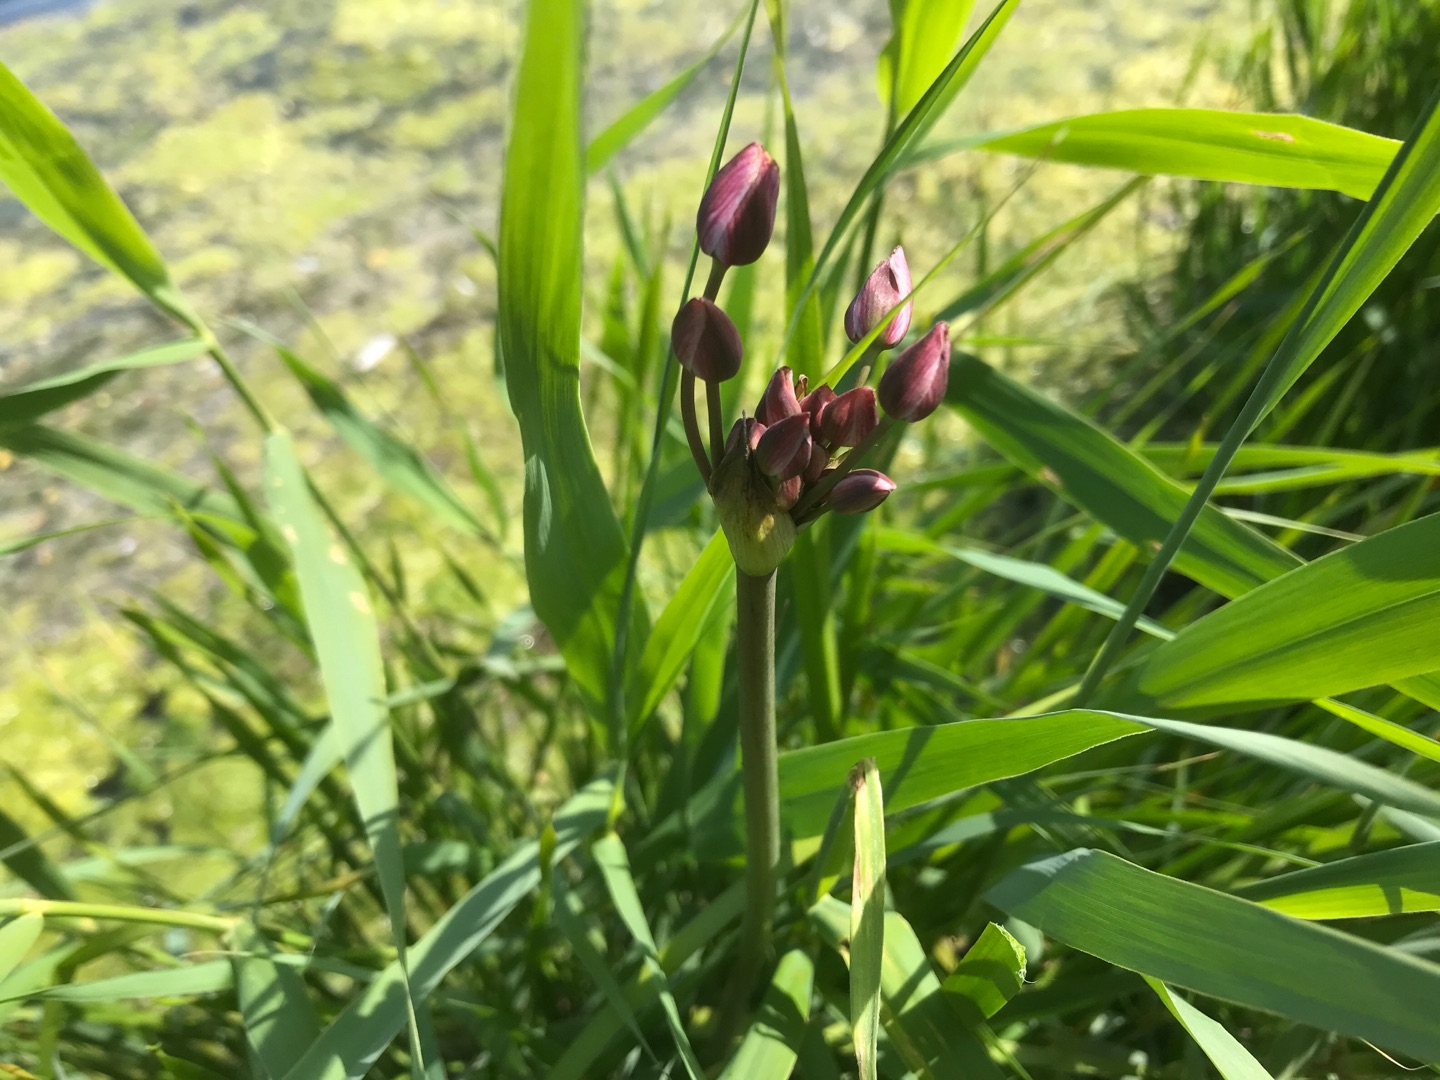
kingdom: Plantae
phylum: Tracheophyta
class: Liliopsida
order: Alismatales
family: Butomaceae
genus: Butomus
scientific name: Butomus umbellatus
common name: Brudelys
